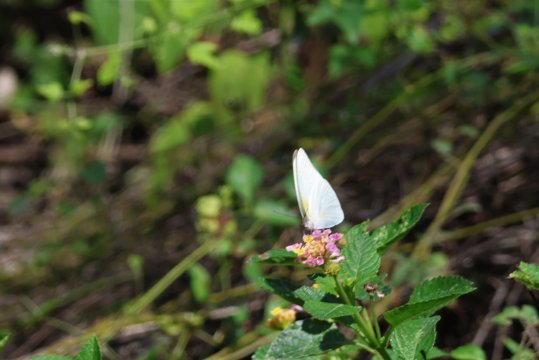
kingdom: Animalia
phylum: Arthropoda
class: Insecta
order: Lepidoptera
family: Pieridae
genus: Glutophrissa
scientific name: Glutophrissa drusilla
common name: Florida White
